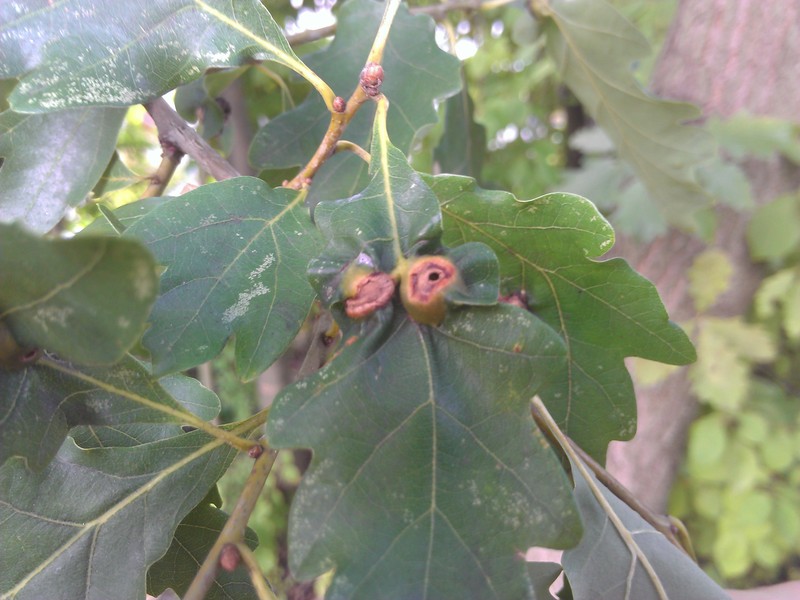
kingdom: Animalia
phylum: Arthropoda
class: Insecta
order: Hymenoptera
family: Cynipidae
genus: Andricus
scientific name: Andricus curvator
